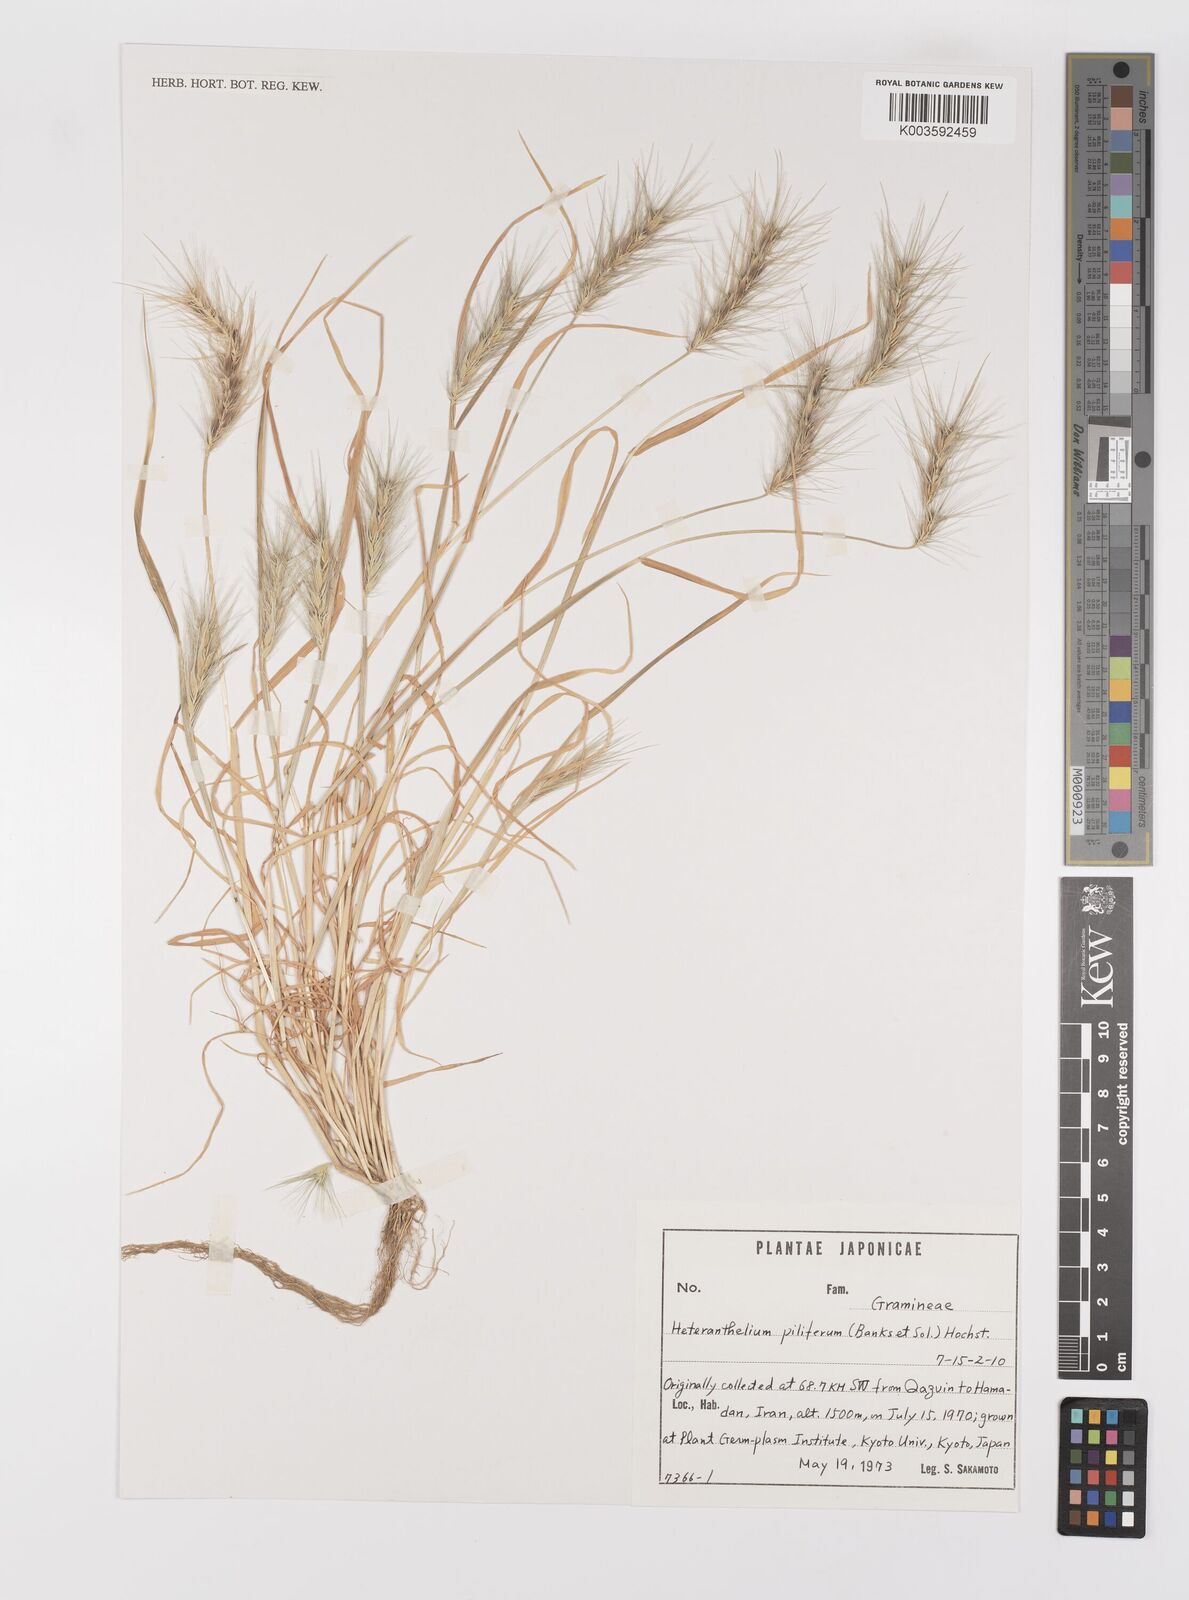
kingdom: Plantae
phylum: Tracheophyta
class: Liliopsida
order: Poales
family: Poaceae
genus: Heteranthelium
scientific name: Heteranthelium piliferum
